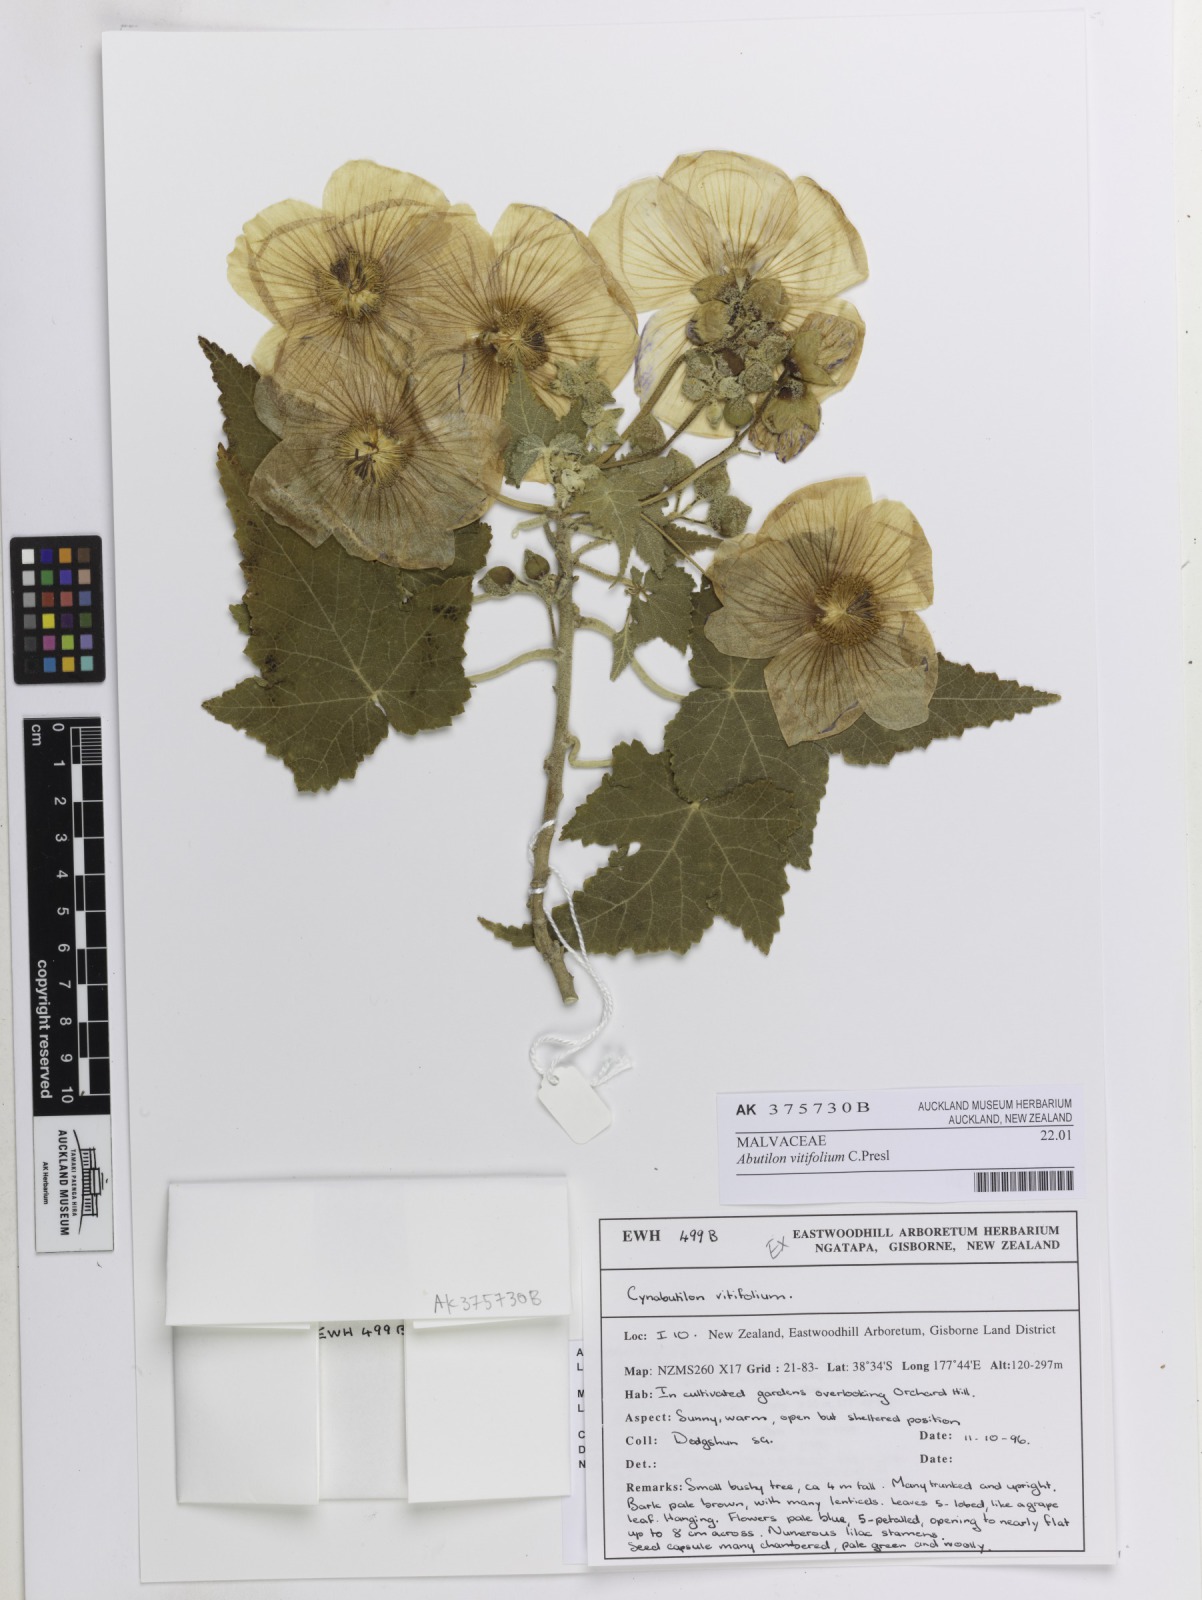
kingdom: Plantae
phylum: Tracheophyta
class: Magnoliopsida
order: Malvales
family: Malvaceae
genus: Corynabutilon
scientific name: Corynabutilon vitifolium
